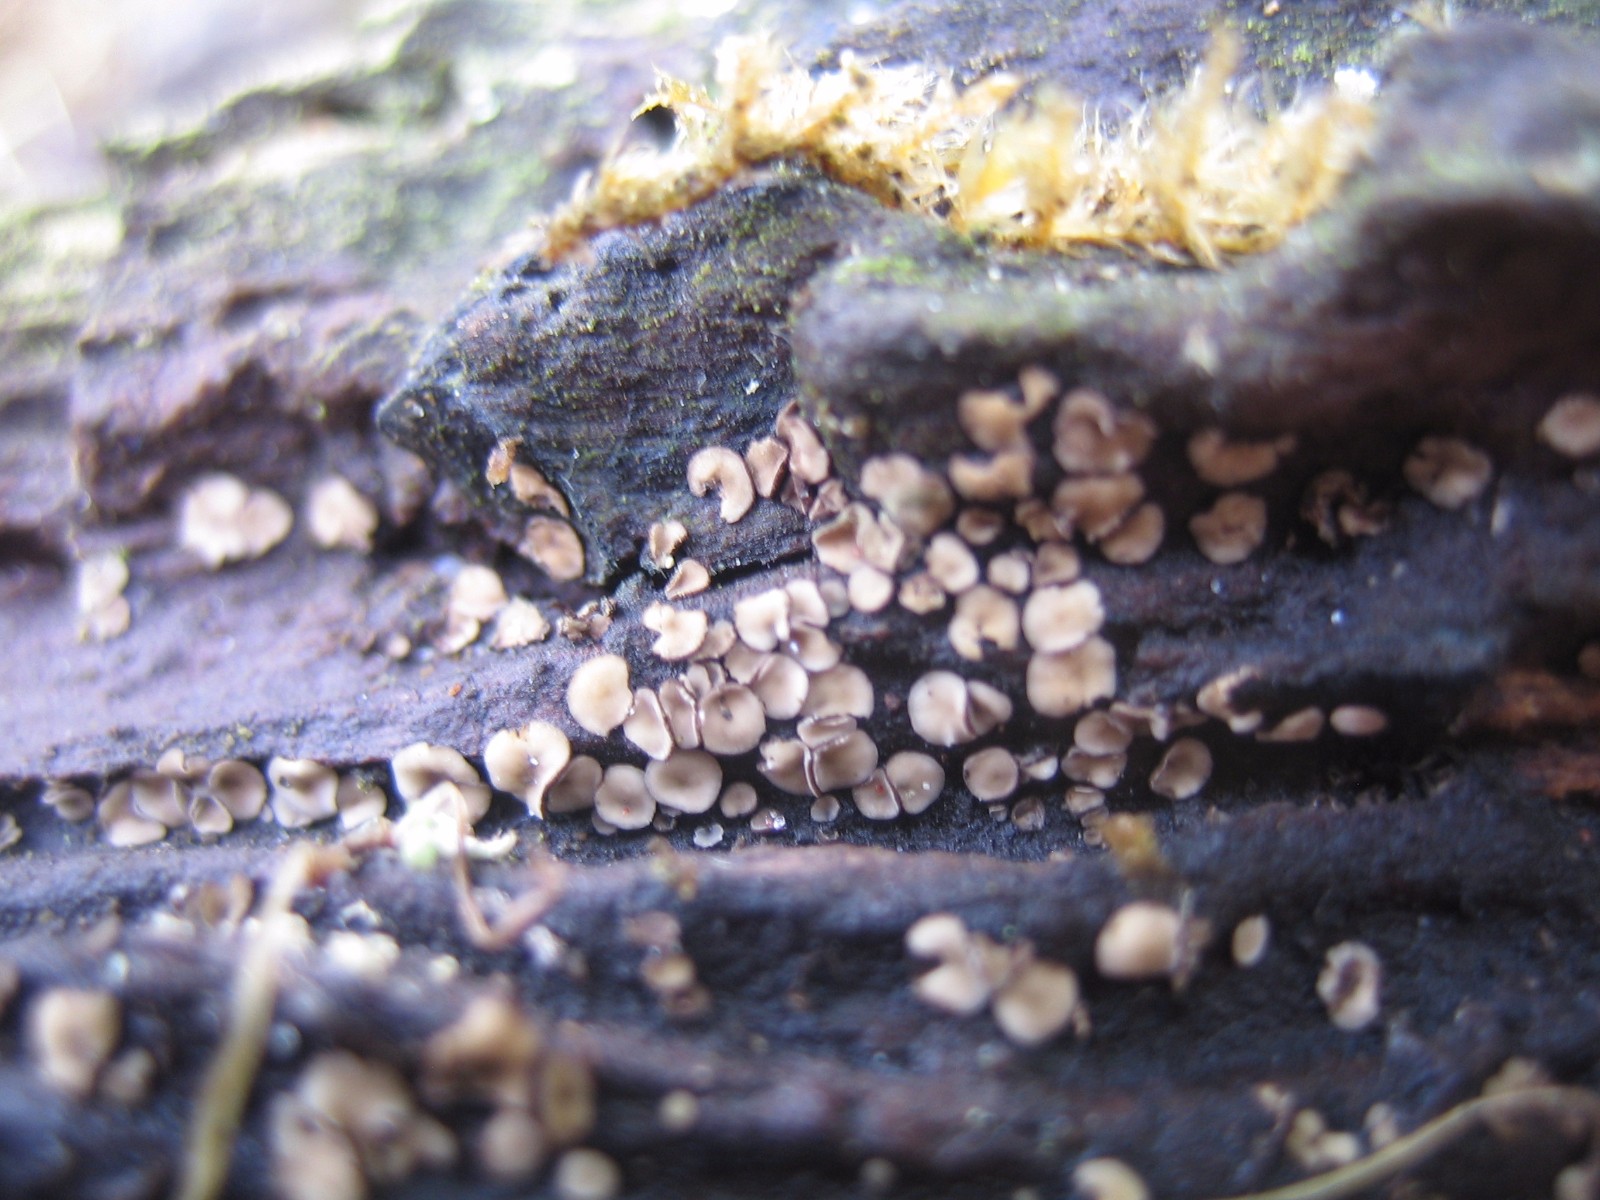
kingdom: Fungi
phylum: Ascomycota
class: Leotiomycetes
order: Helotiales
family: Mollisiaceae
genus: Mollisia
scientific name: Mollisia
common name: gråskive
